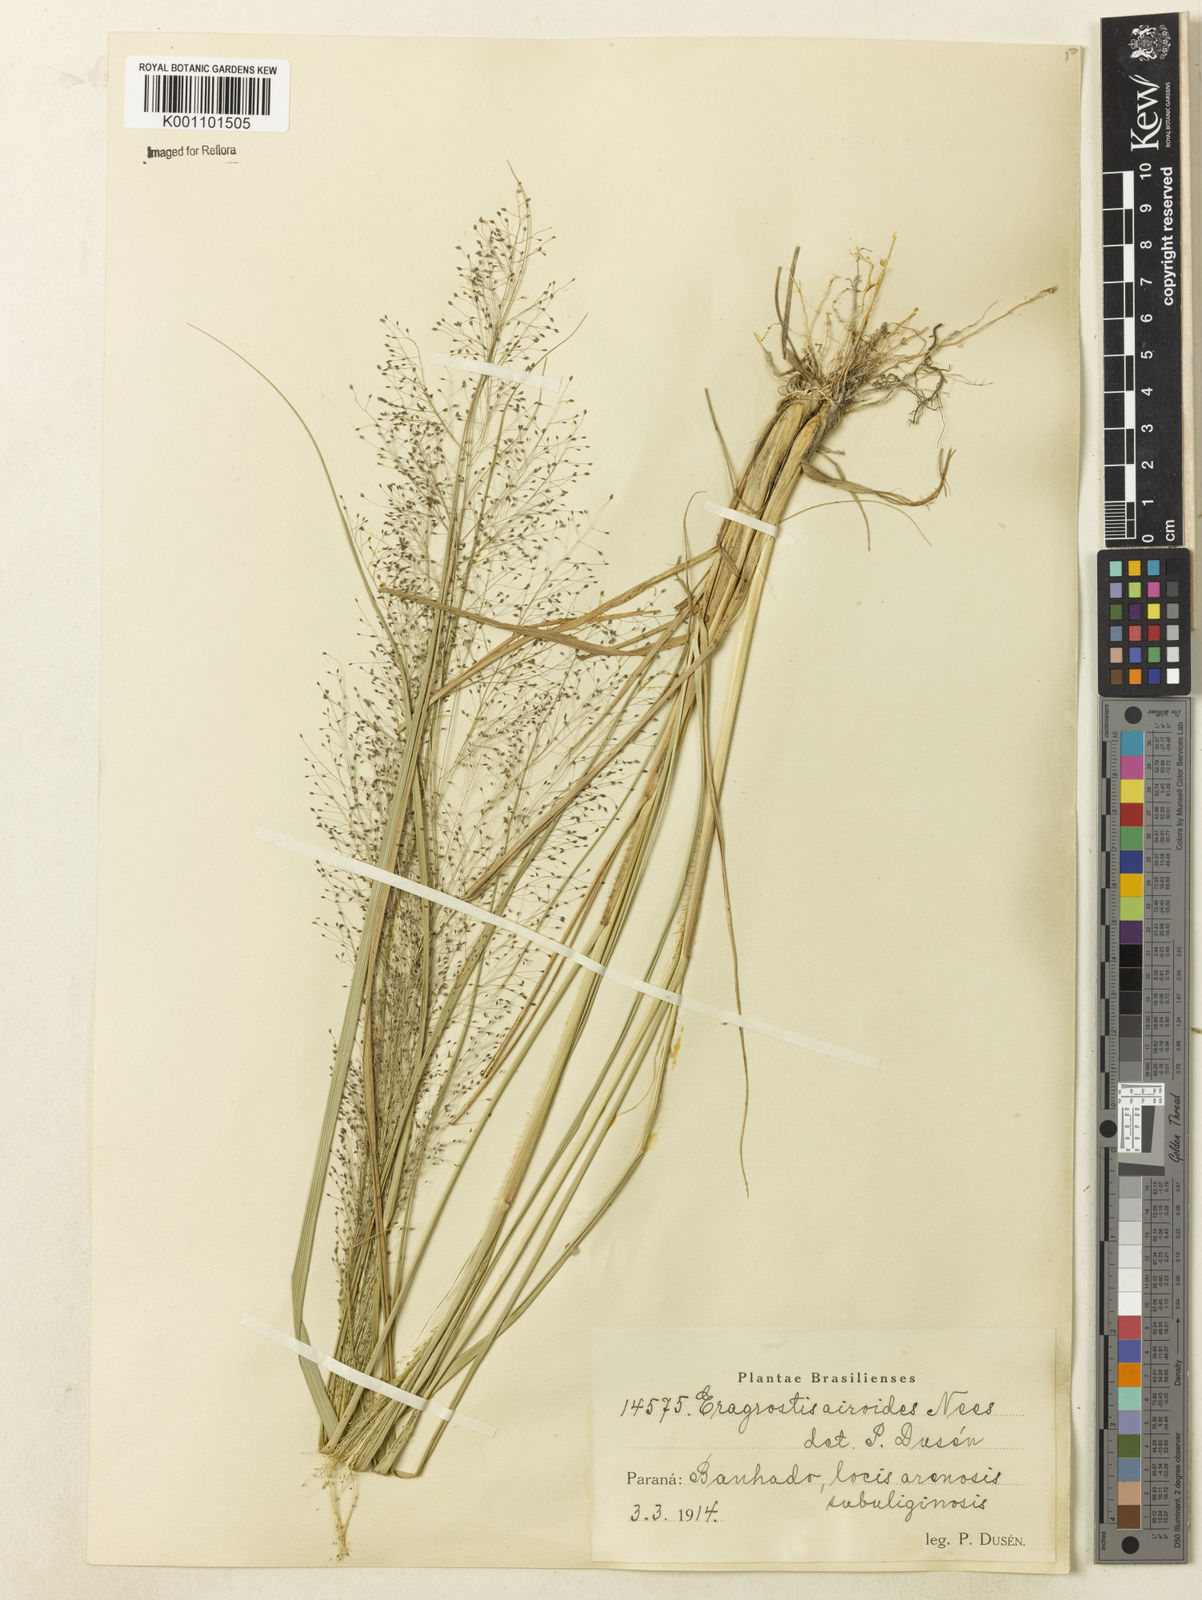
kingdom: Plantae
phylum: Tracheophyta
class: Liliopsida
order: Poales
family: Poaceae
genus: Eragrostis
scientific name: Eragrostis airoides
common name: Darnel lovegrass
